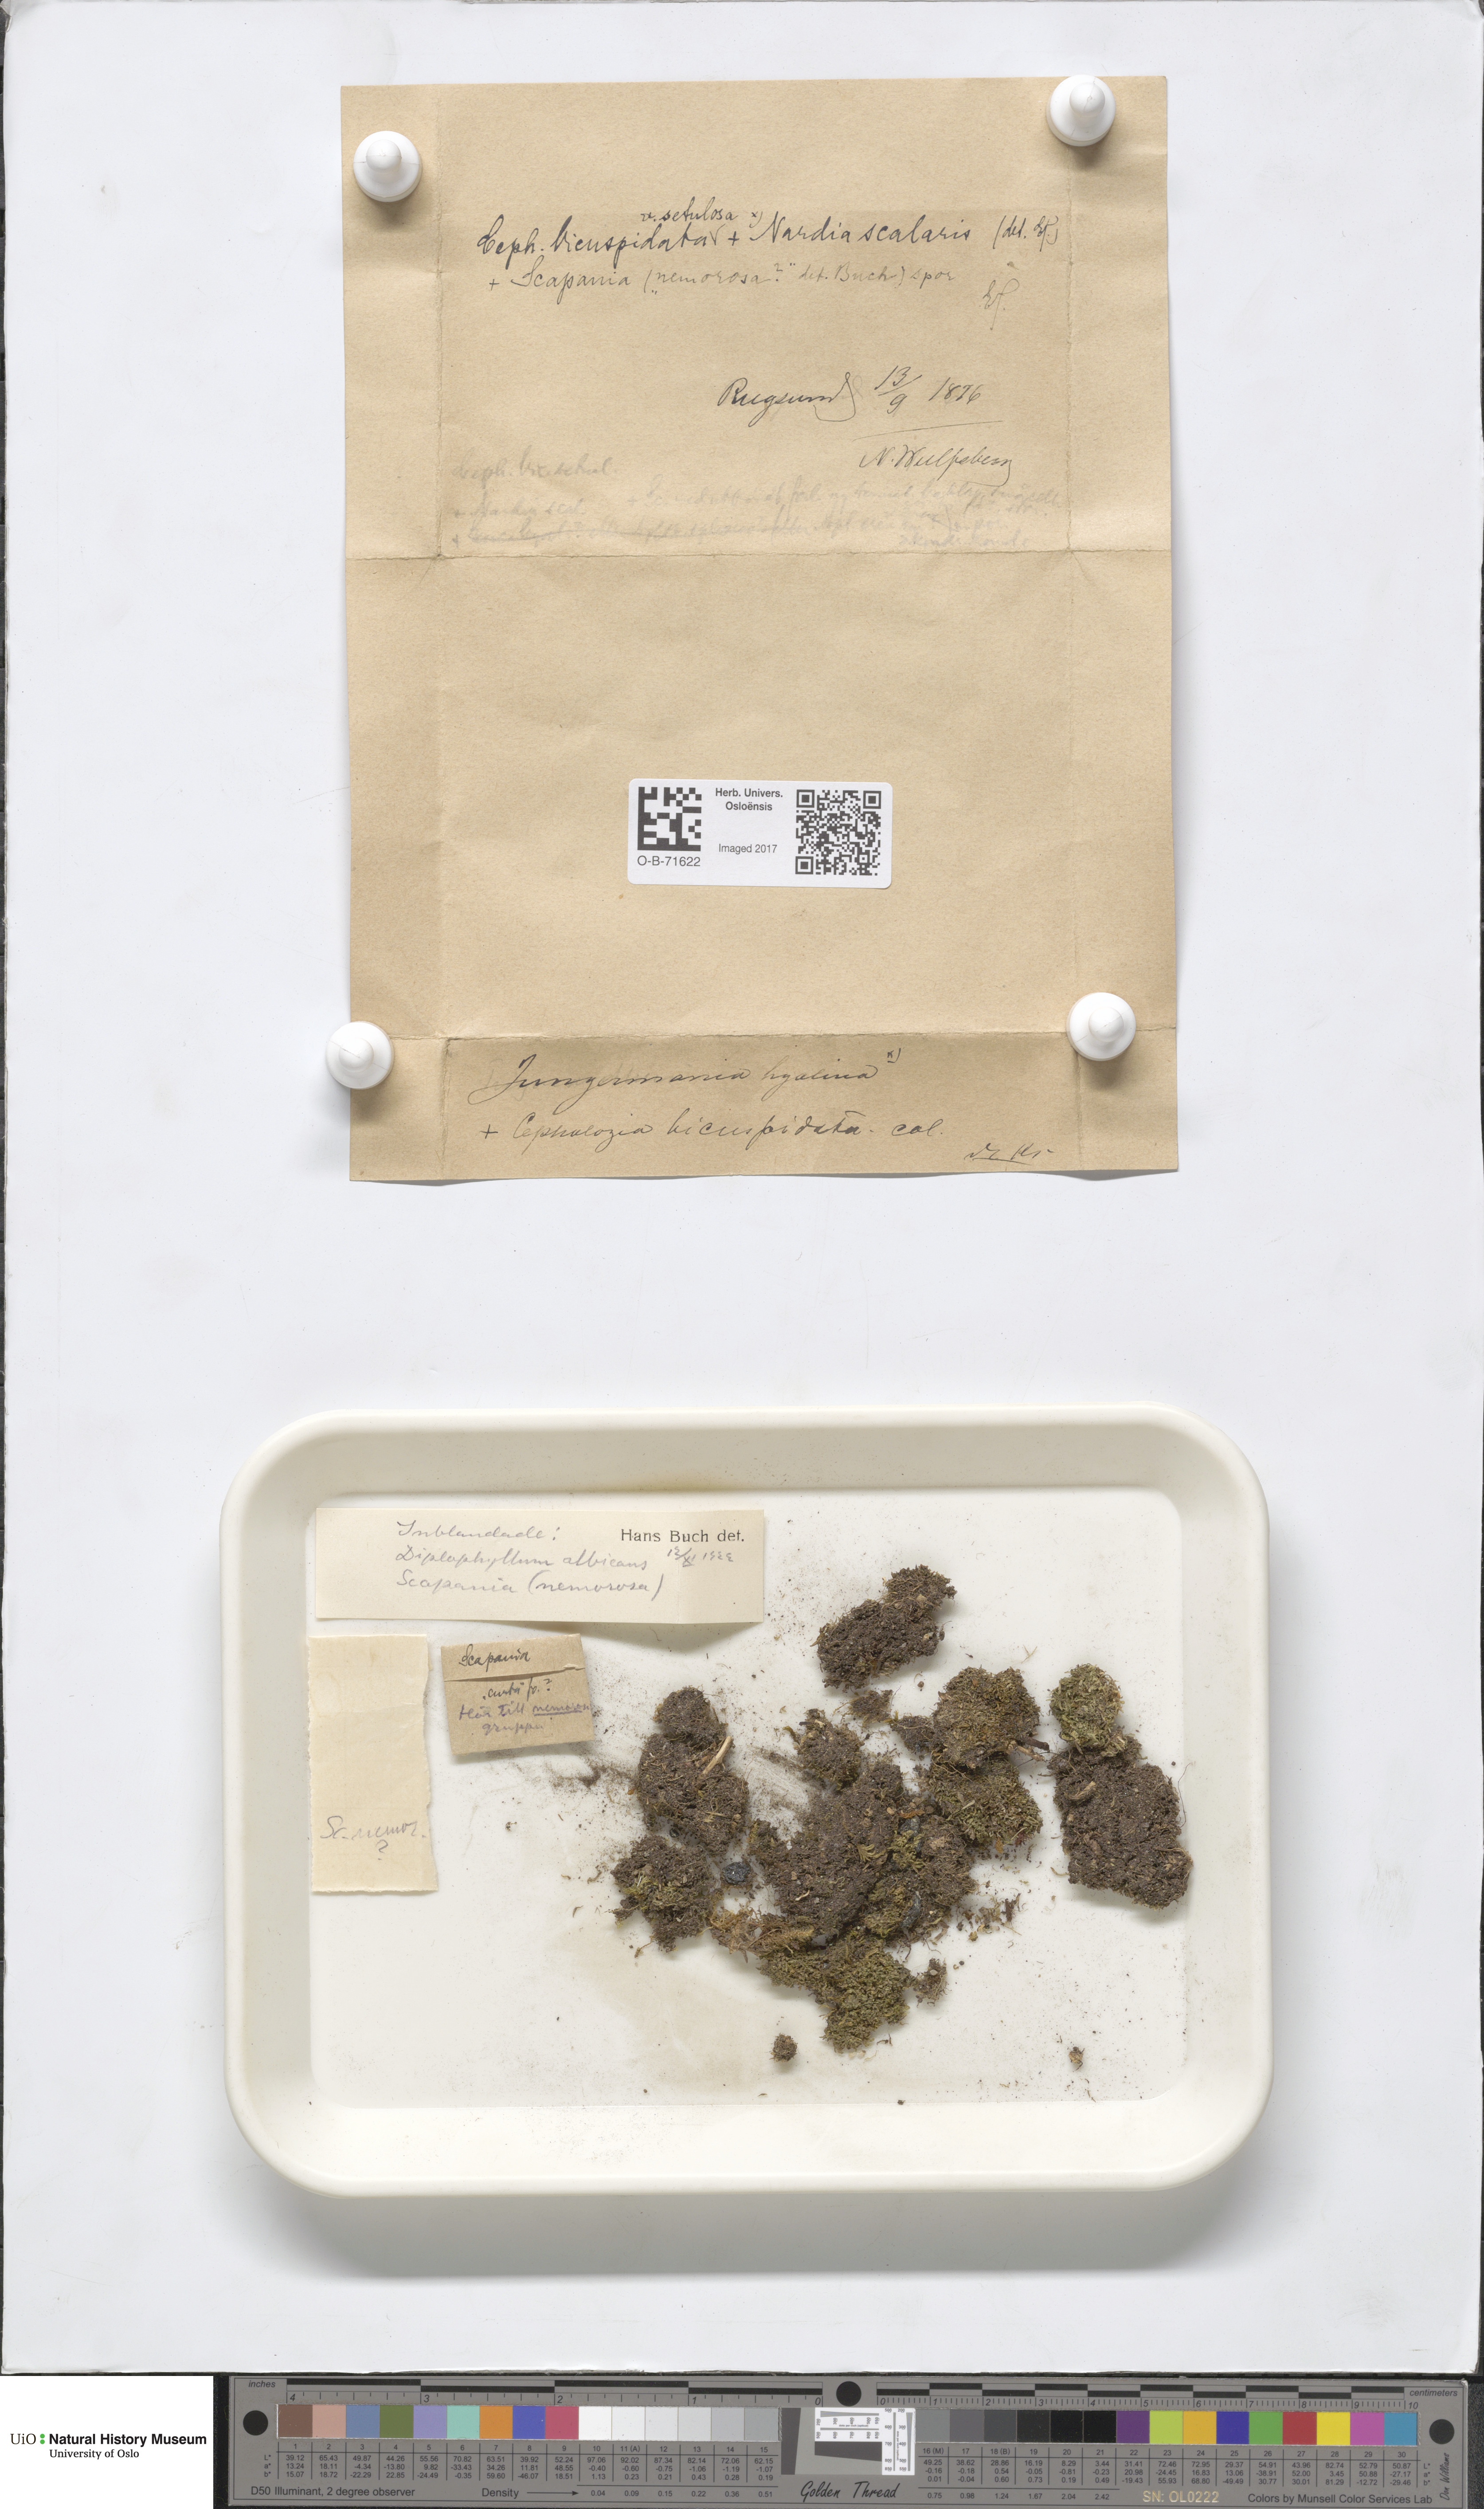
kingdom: Plantae
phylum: Marchantiophyta
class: Jungermanniopsida
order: Jungermanniales
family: Cephaloziaceae
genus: Cephalozia
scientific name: Cephalozia bicuspidata
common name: Two-horned pincerwort
